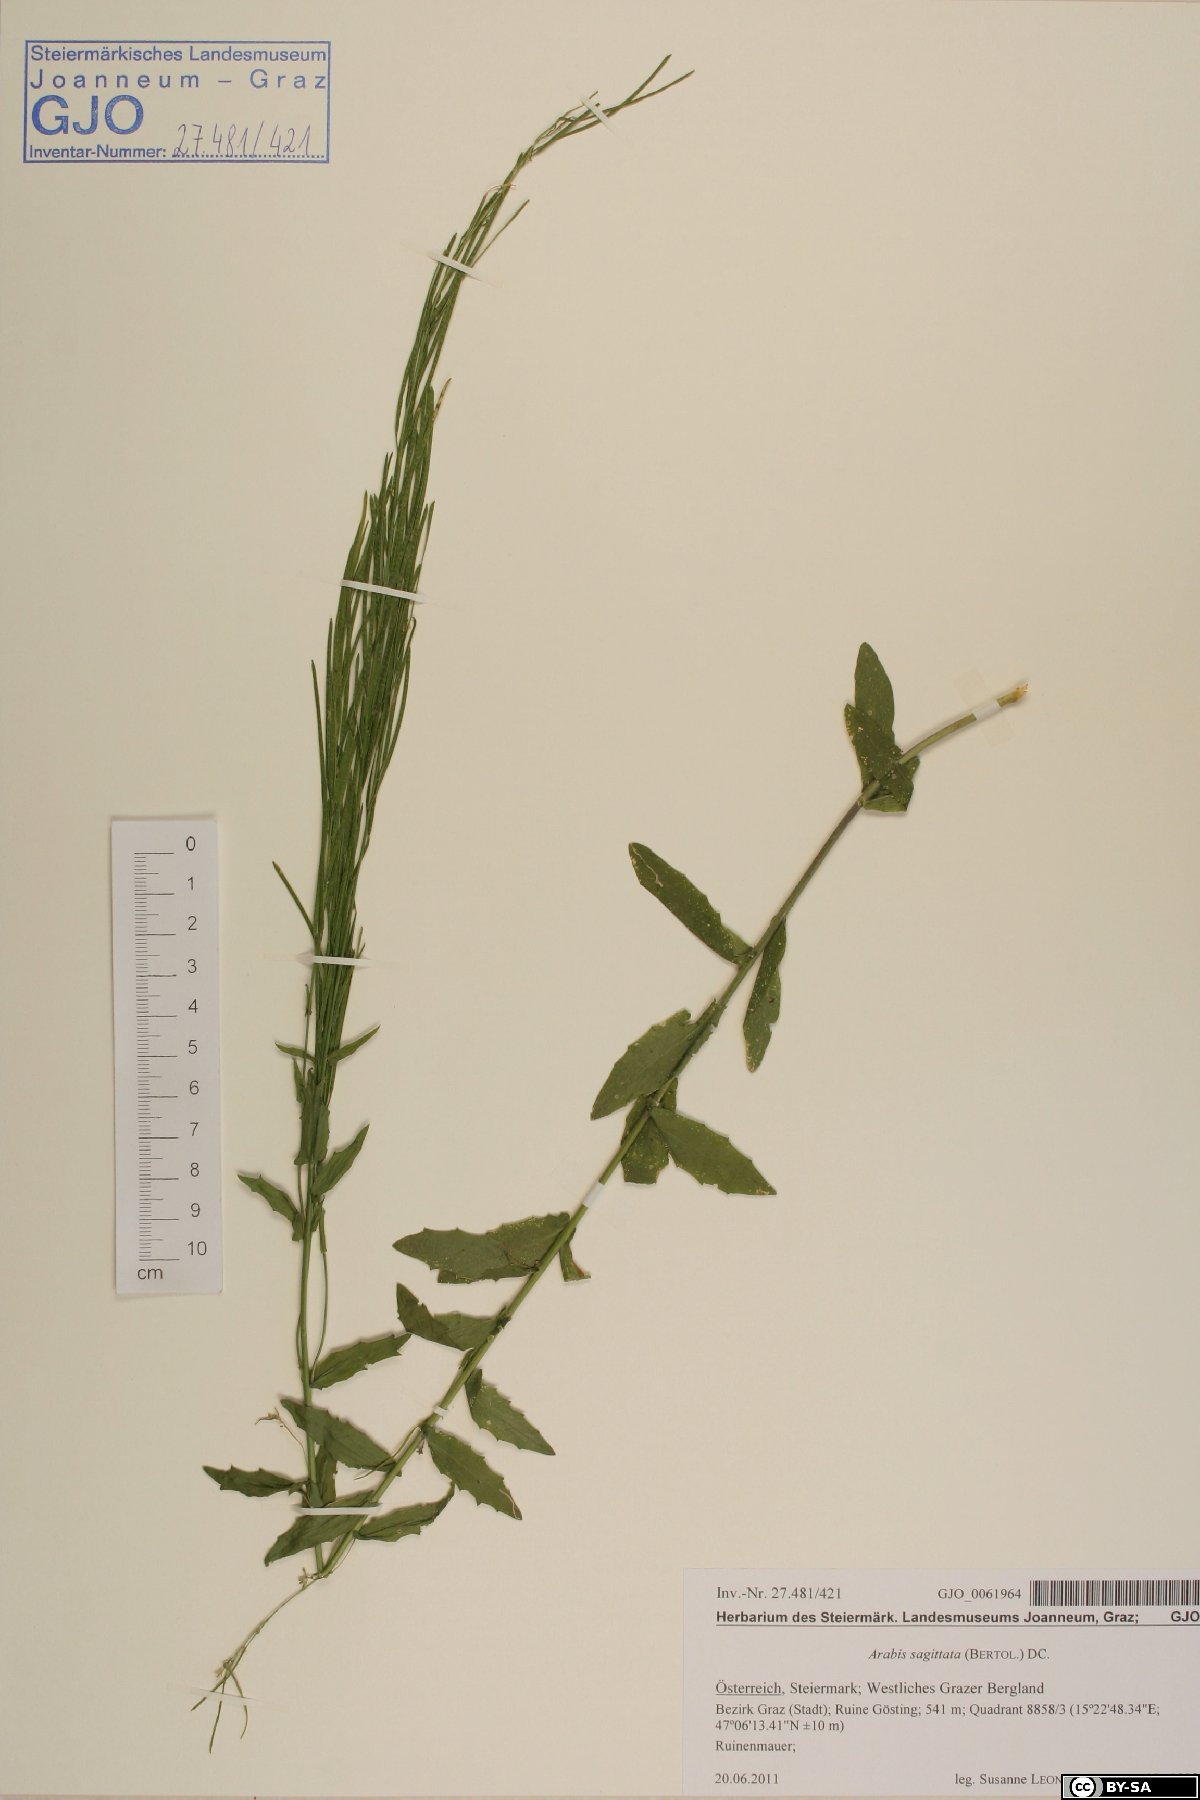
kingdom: Plantae
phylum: Tracheophyta
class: Magnoliopsida
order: Brassicales
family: Brassicaceae
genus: Arabis
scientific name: Arabis sagittata
